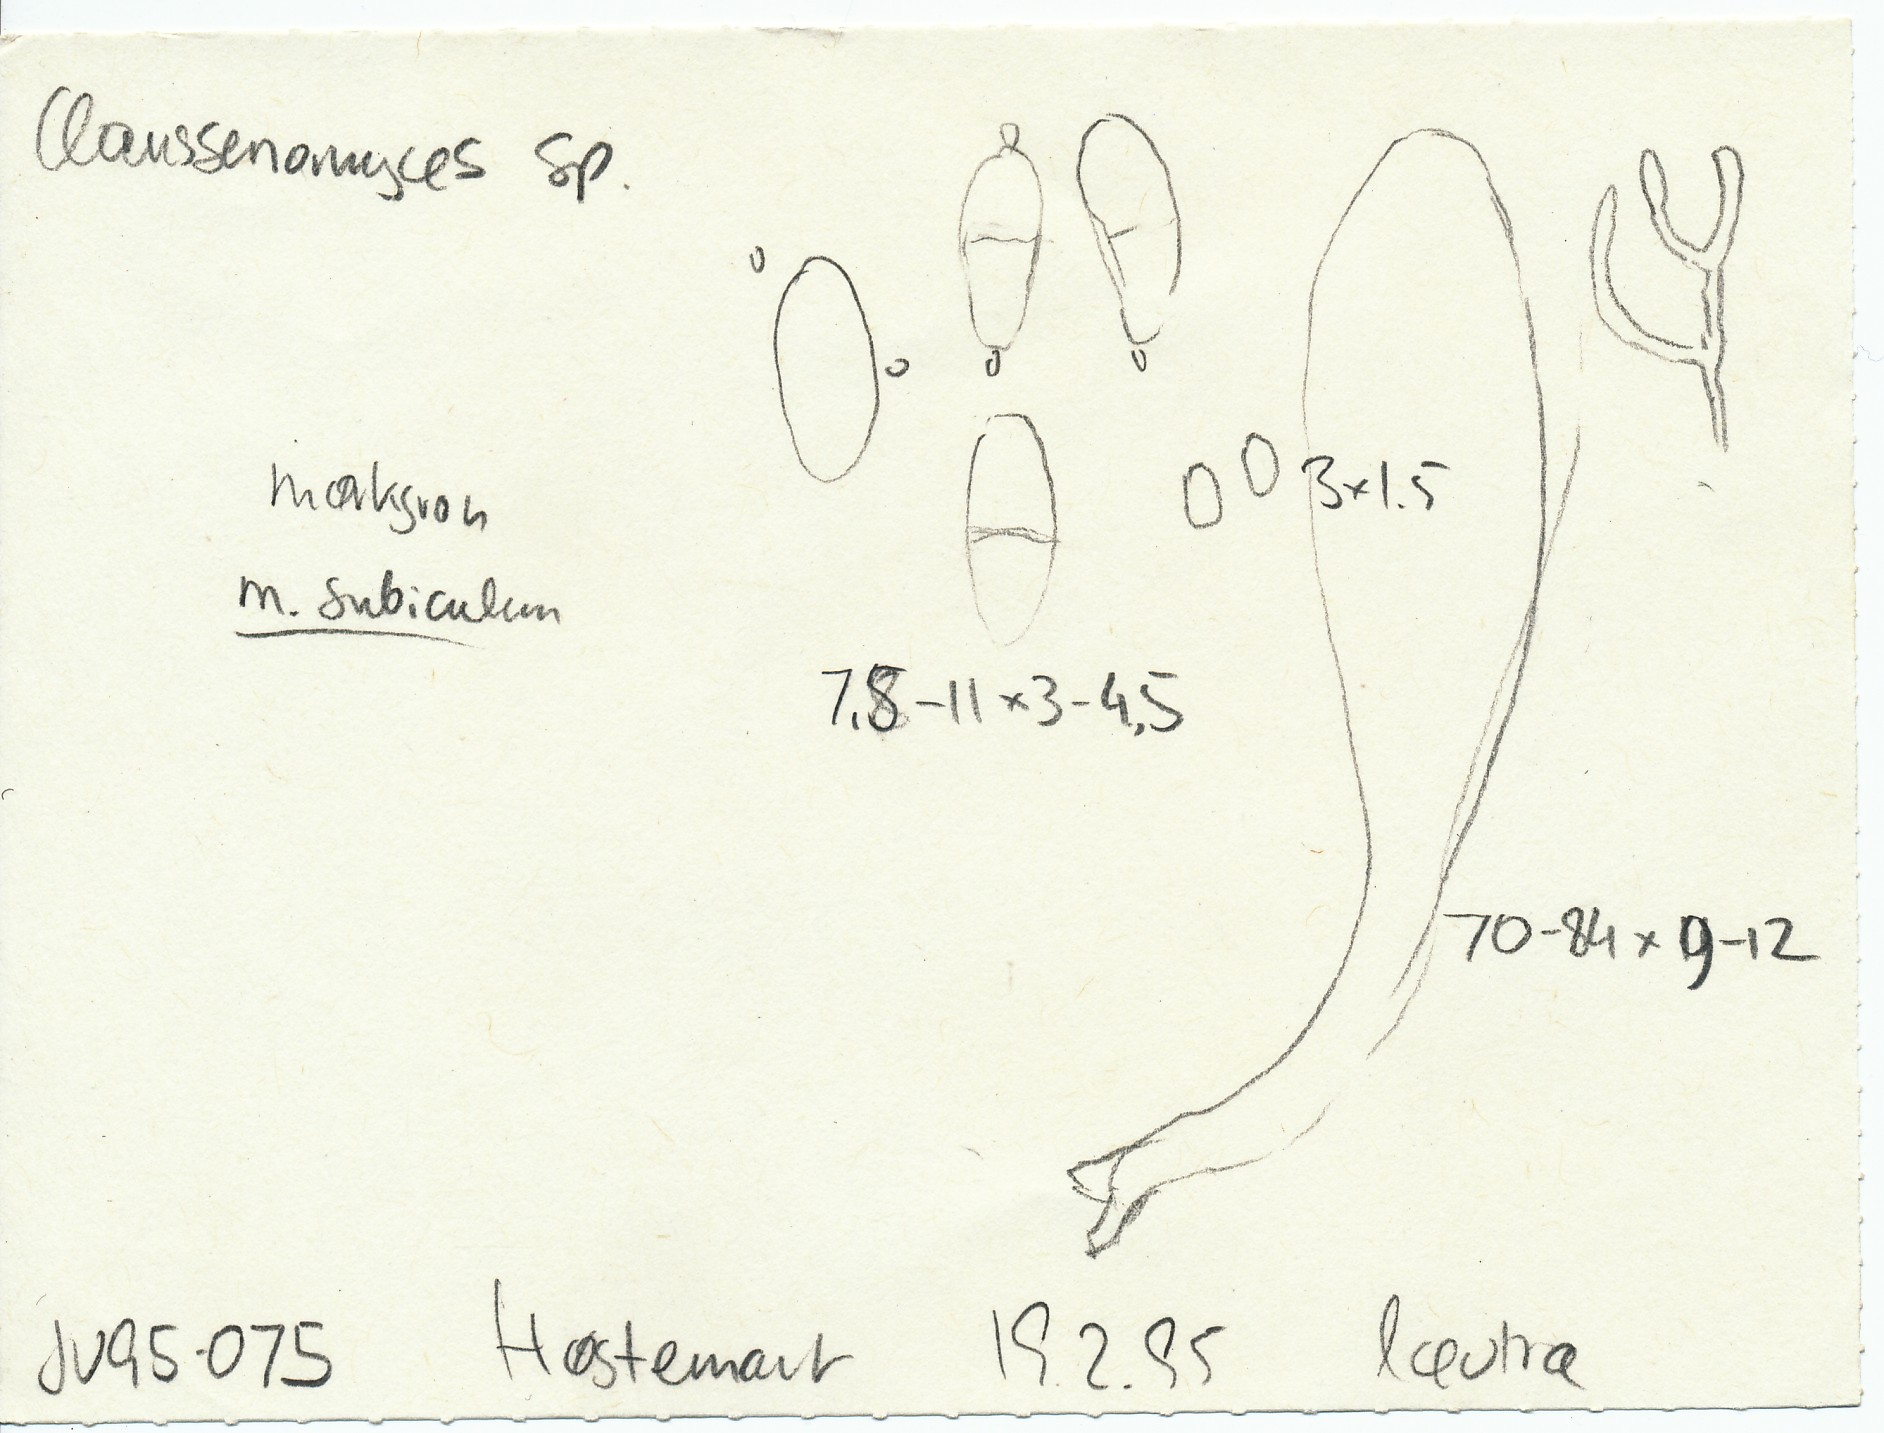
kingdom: Fungi
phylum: Ascomycota
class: Leotiomycetes
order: Leotiales
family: Tympanidaceae
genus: Vexillomyces
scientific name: Vexillomyces atrovirens
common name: sortgrøn linseskive
